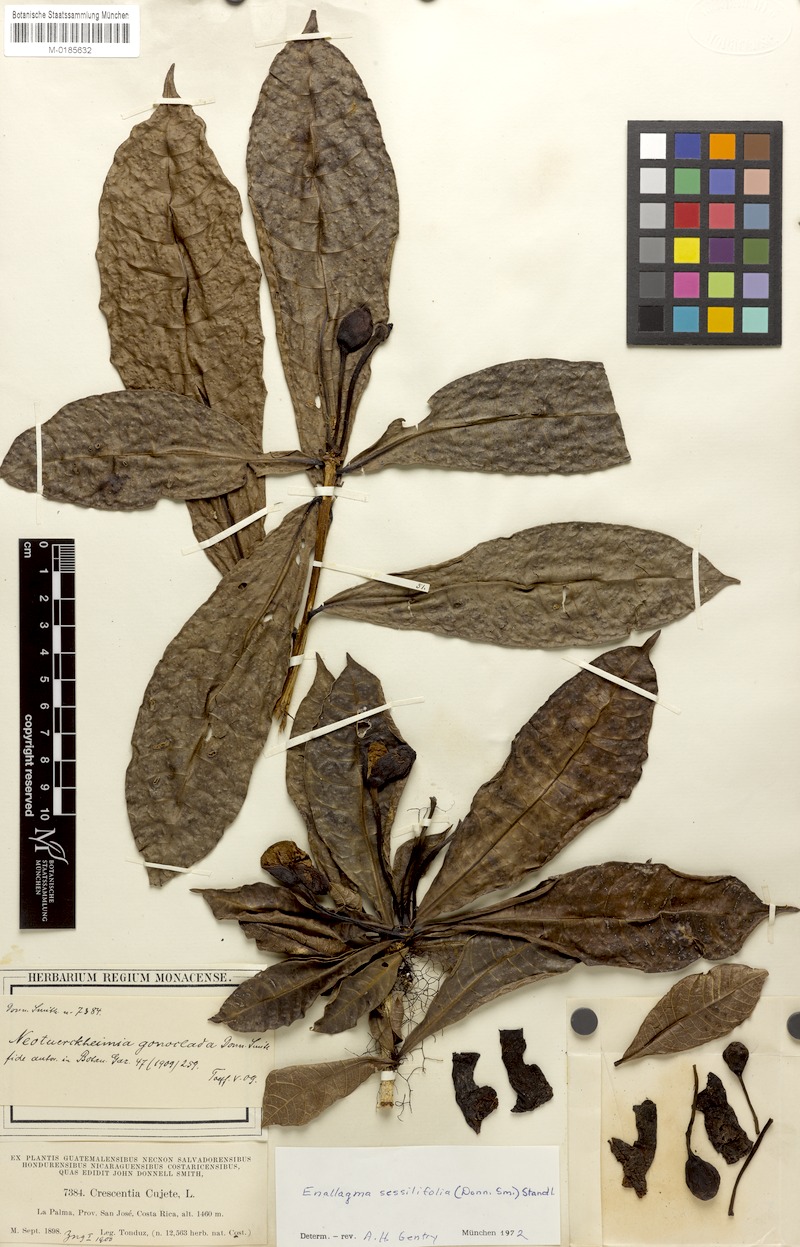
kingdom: Plantae
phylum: Tracheophyta
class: Magnoliopsida
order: Lamiales
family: Bignoniaceae
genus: Amphitecna
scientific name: Amphitecna sessilifolia
